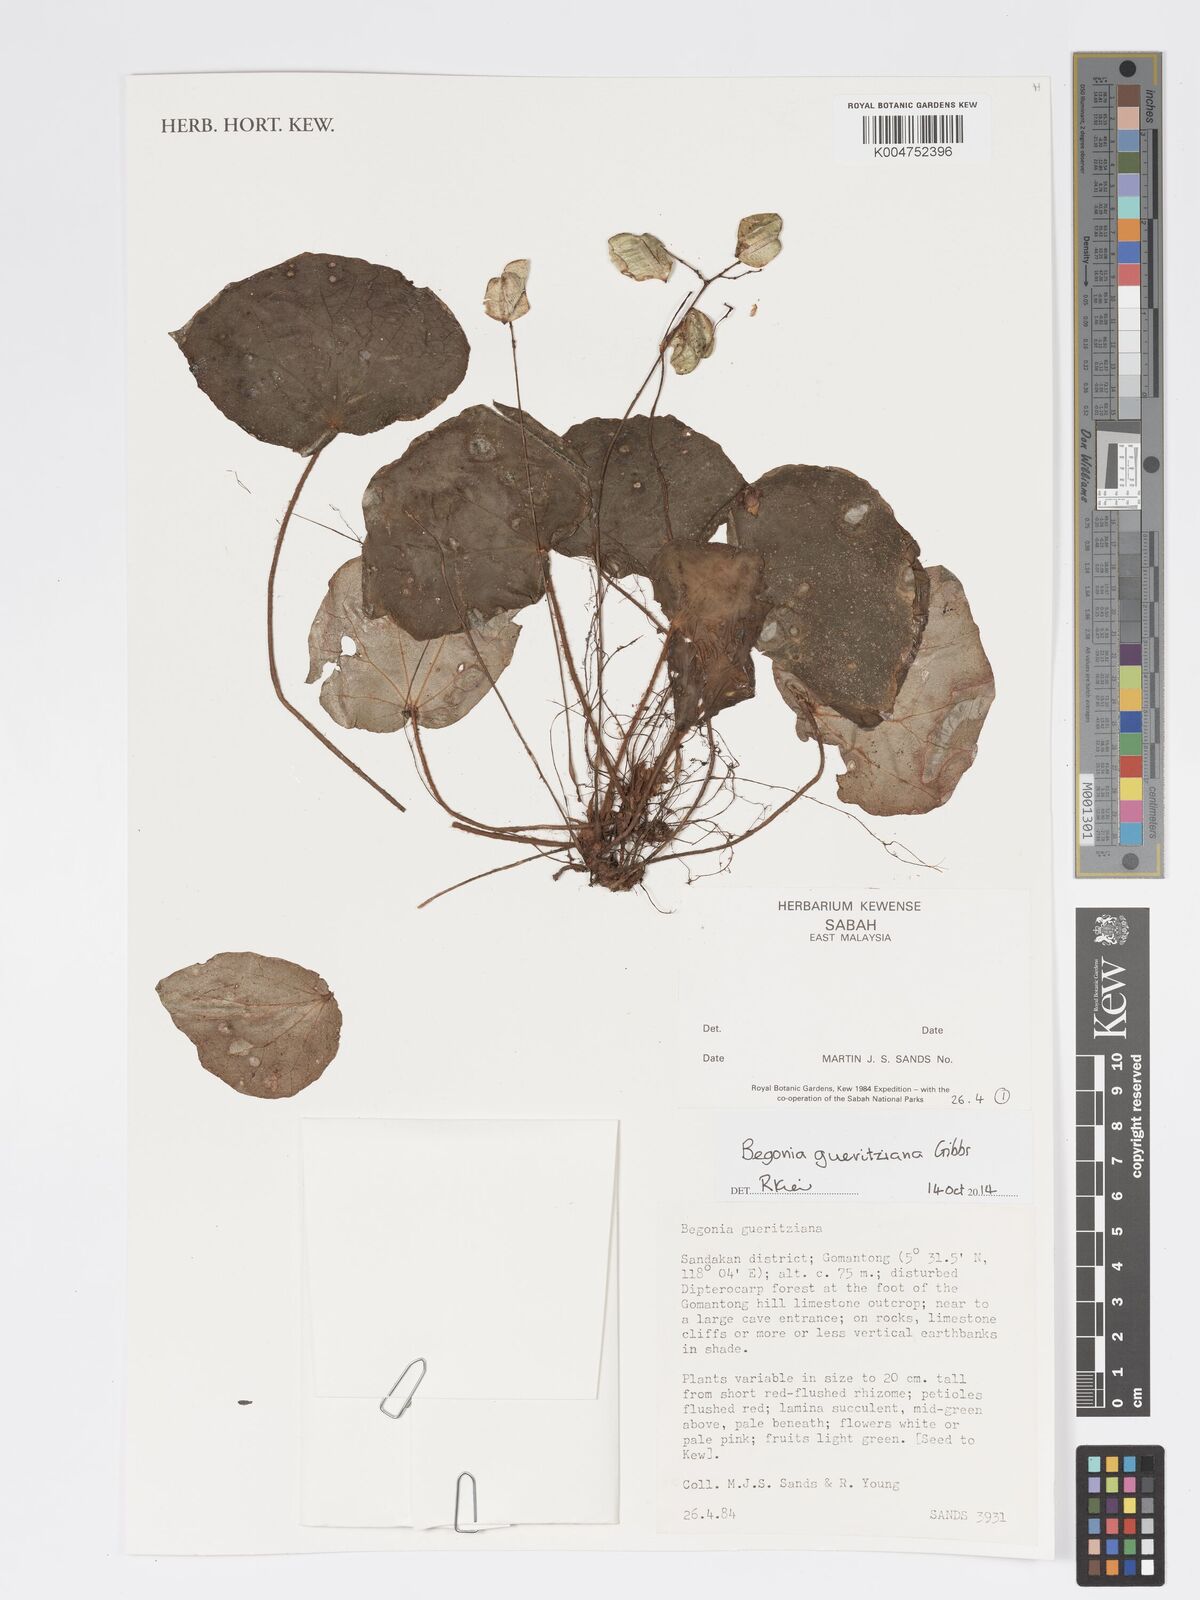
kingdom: Plantae
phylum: Tracheophyta
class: Magnoliopsida
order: Cucurbitales
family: Begoniaceae
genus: Begonia
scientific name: Begonia gueritziana
